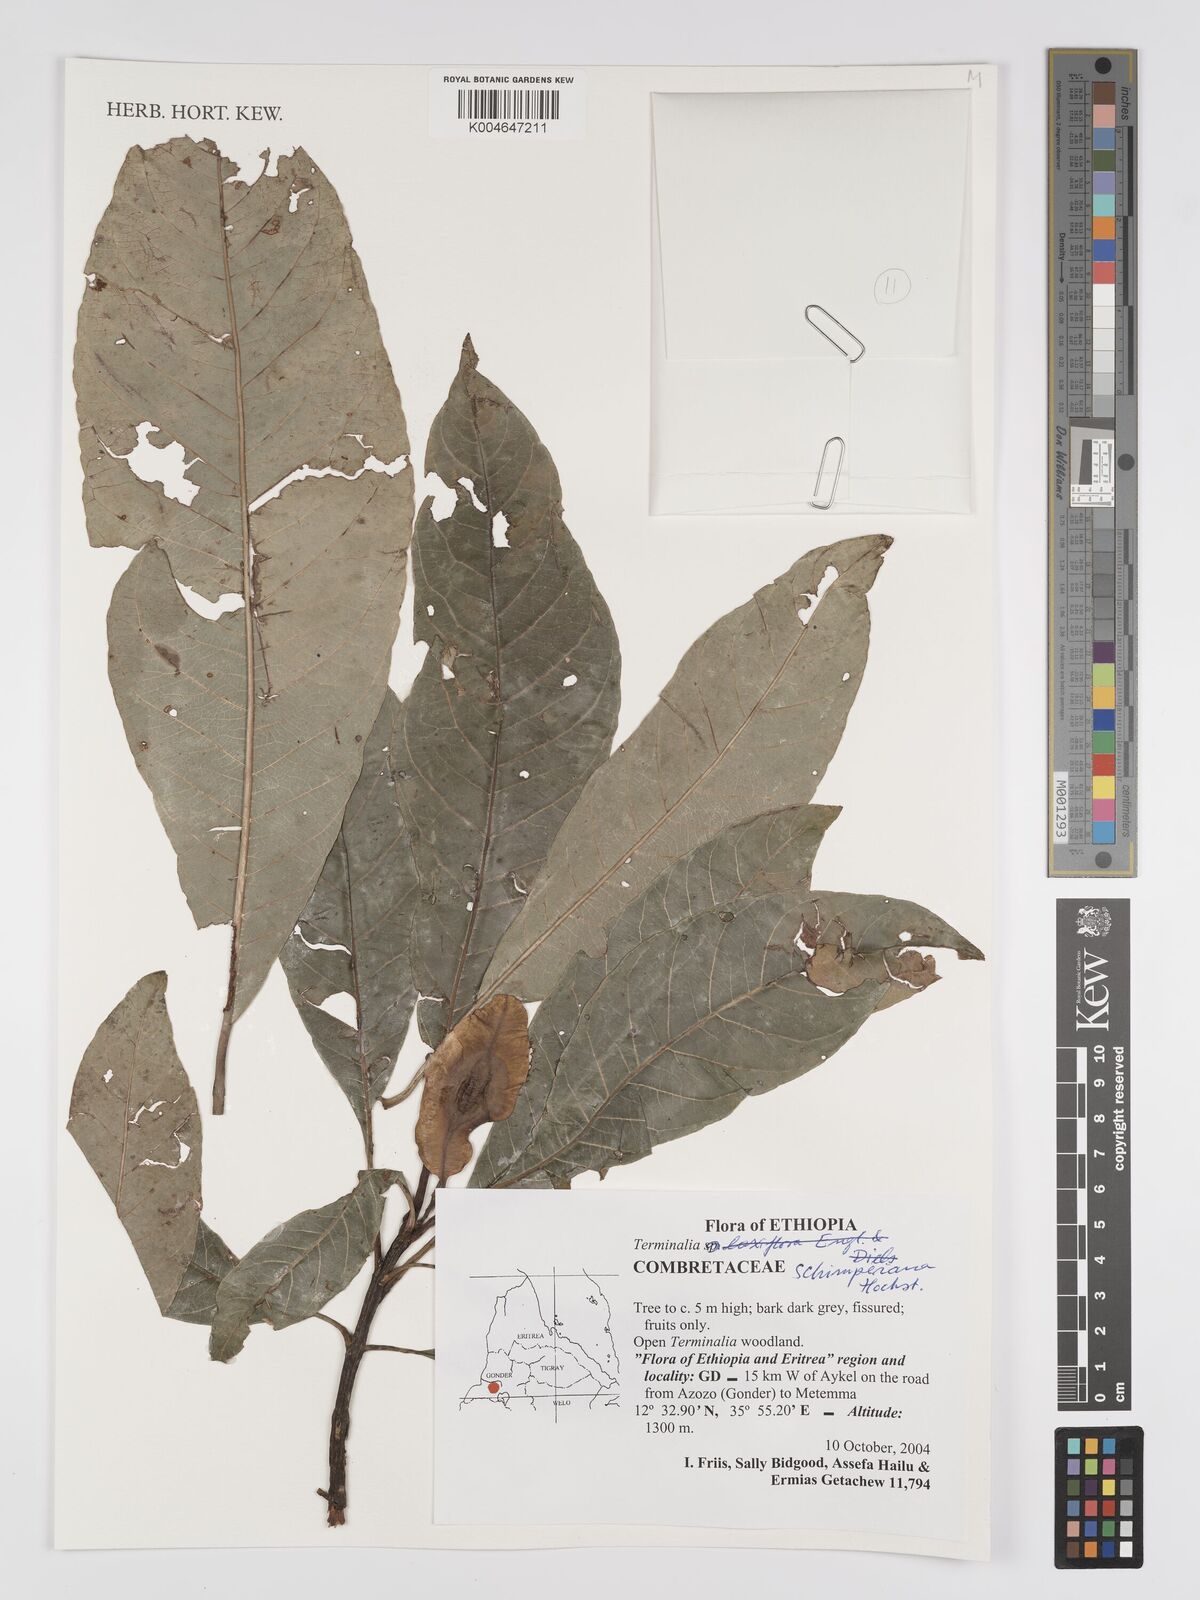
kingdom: Plantae
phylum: Tracheophyta
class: Magnoliopsida
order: Myrtales
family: Combretaceae
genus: Terminalia
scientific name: Terminalia schimperiana
